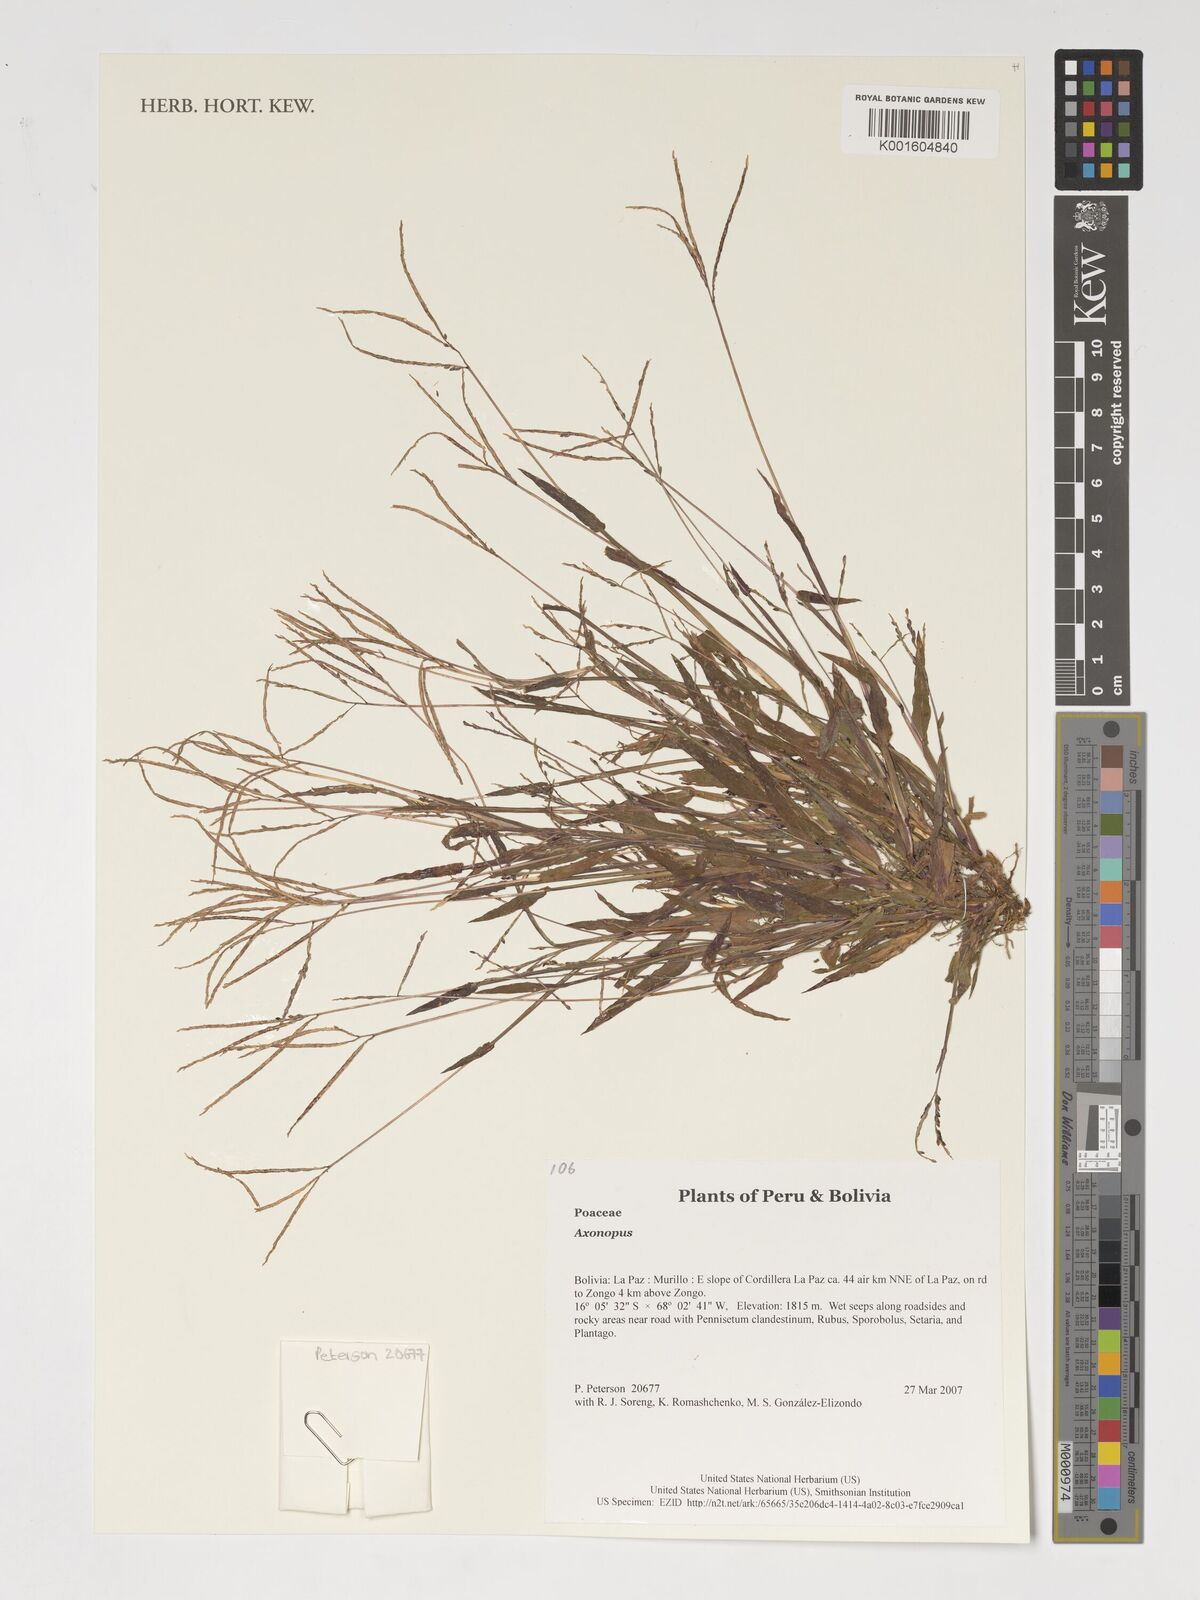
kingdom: Plantae
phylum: Tracheophyta
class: Liliopsida
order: Poales
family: Poaceae
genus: Axonopus
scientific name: Axonopus
